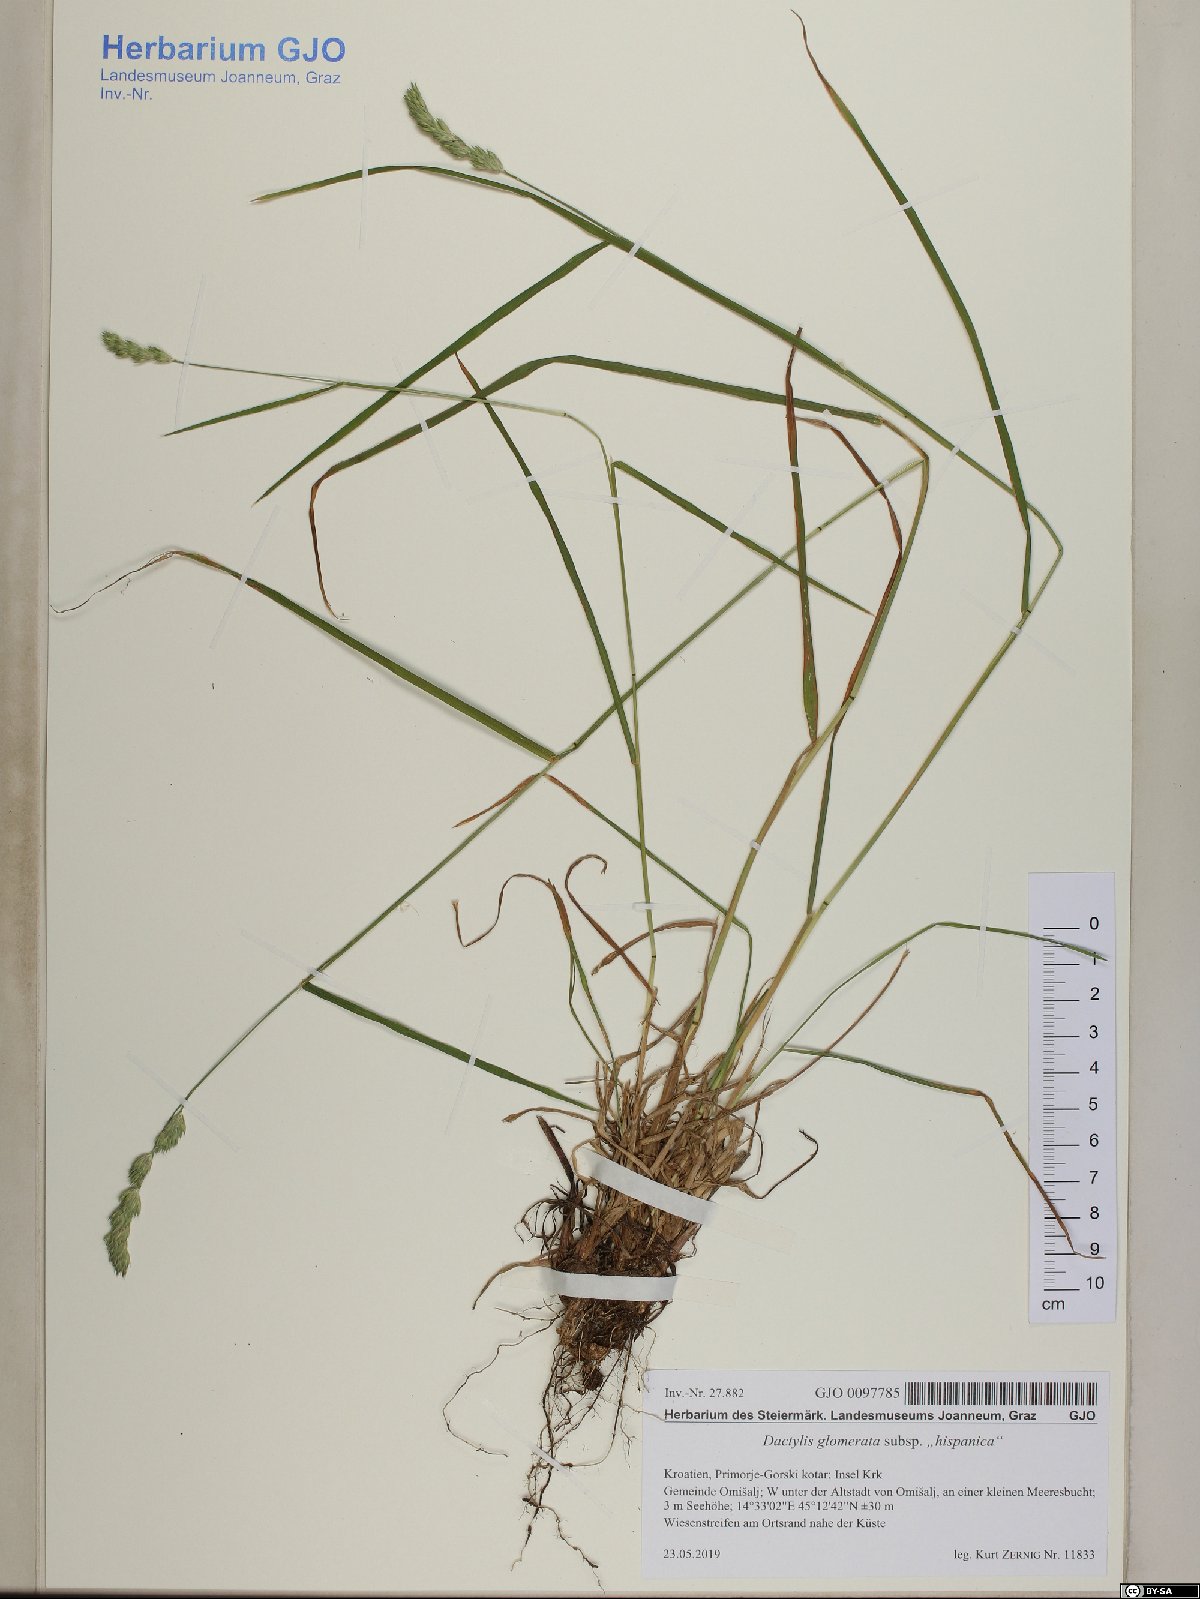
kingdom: Plantae
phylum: Tracheophyta
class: Liliopsida
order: Poales
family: Poaceae
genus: Dactylis
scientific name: Dactylis glomerata
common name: Orchardgrass
